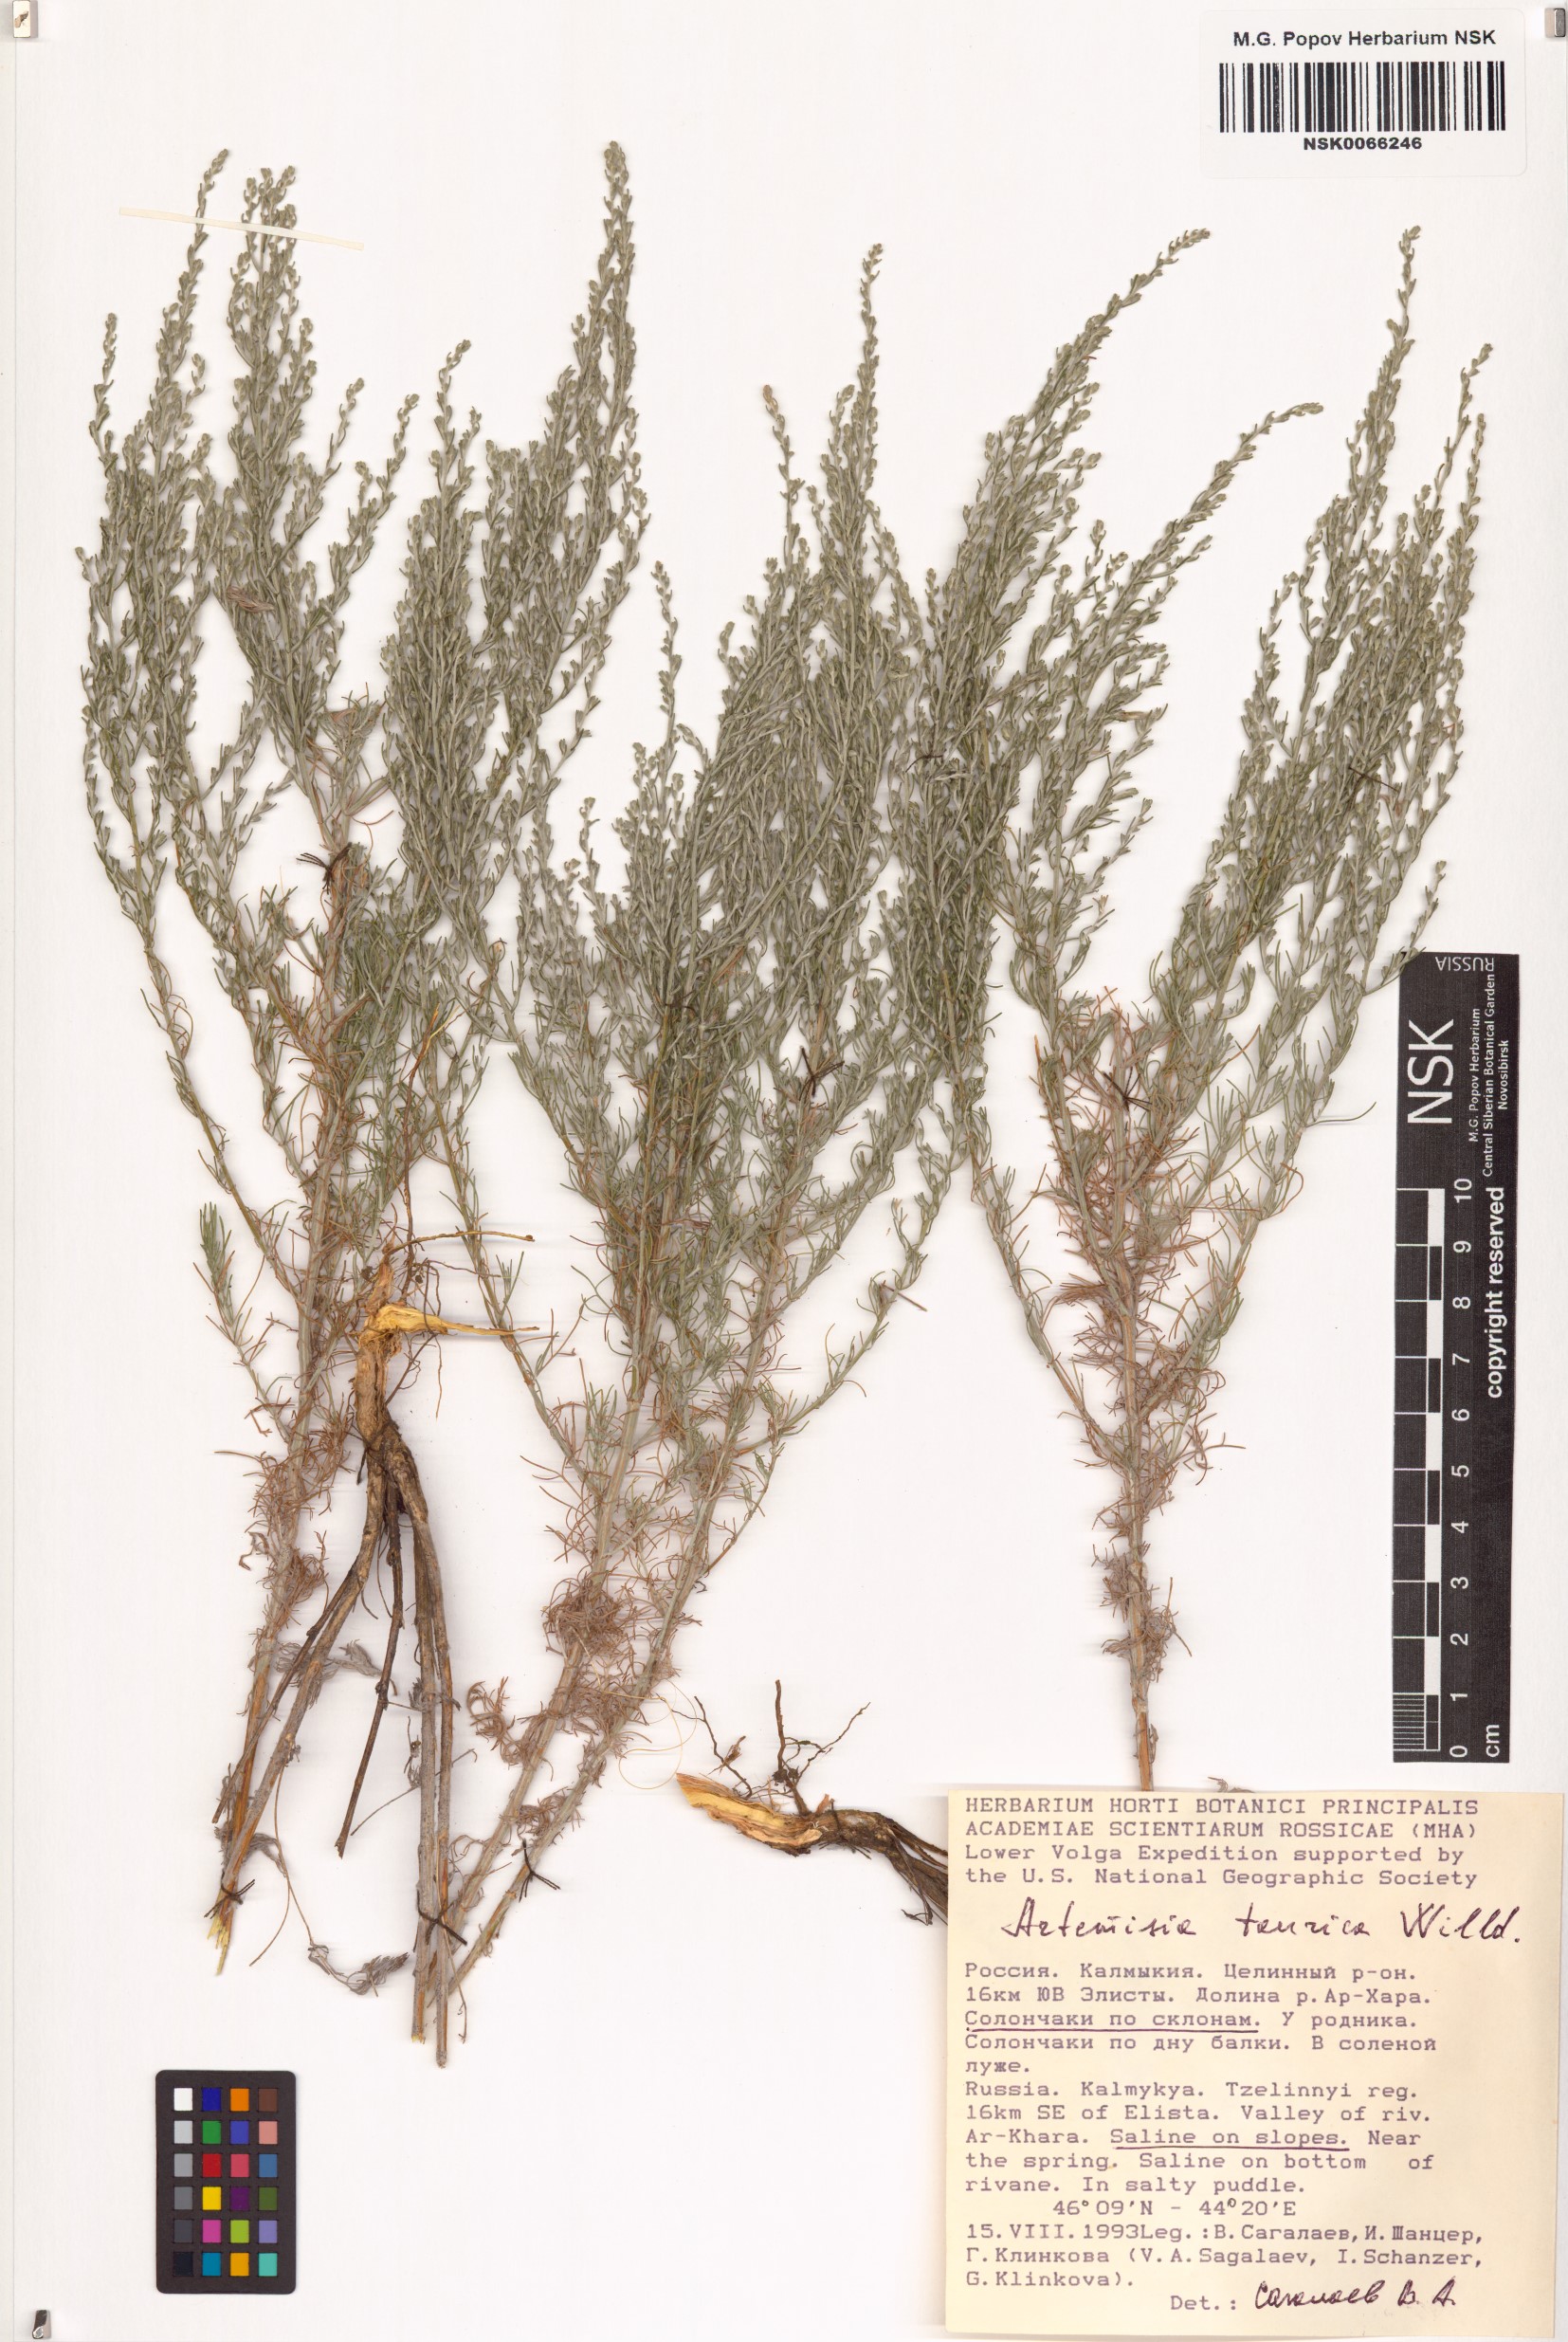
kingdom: Plantae
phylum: Tracheophyta
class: Magnoliopsida
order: Asterales
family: Asteraceae
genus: Artemisia
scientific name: Artemisia taurica
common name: Tauric wormwood
